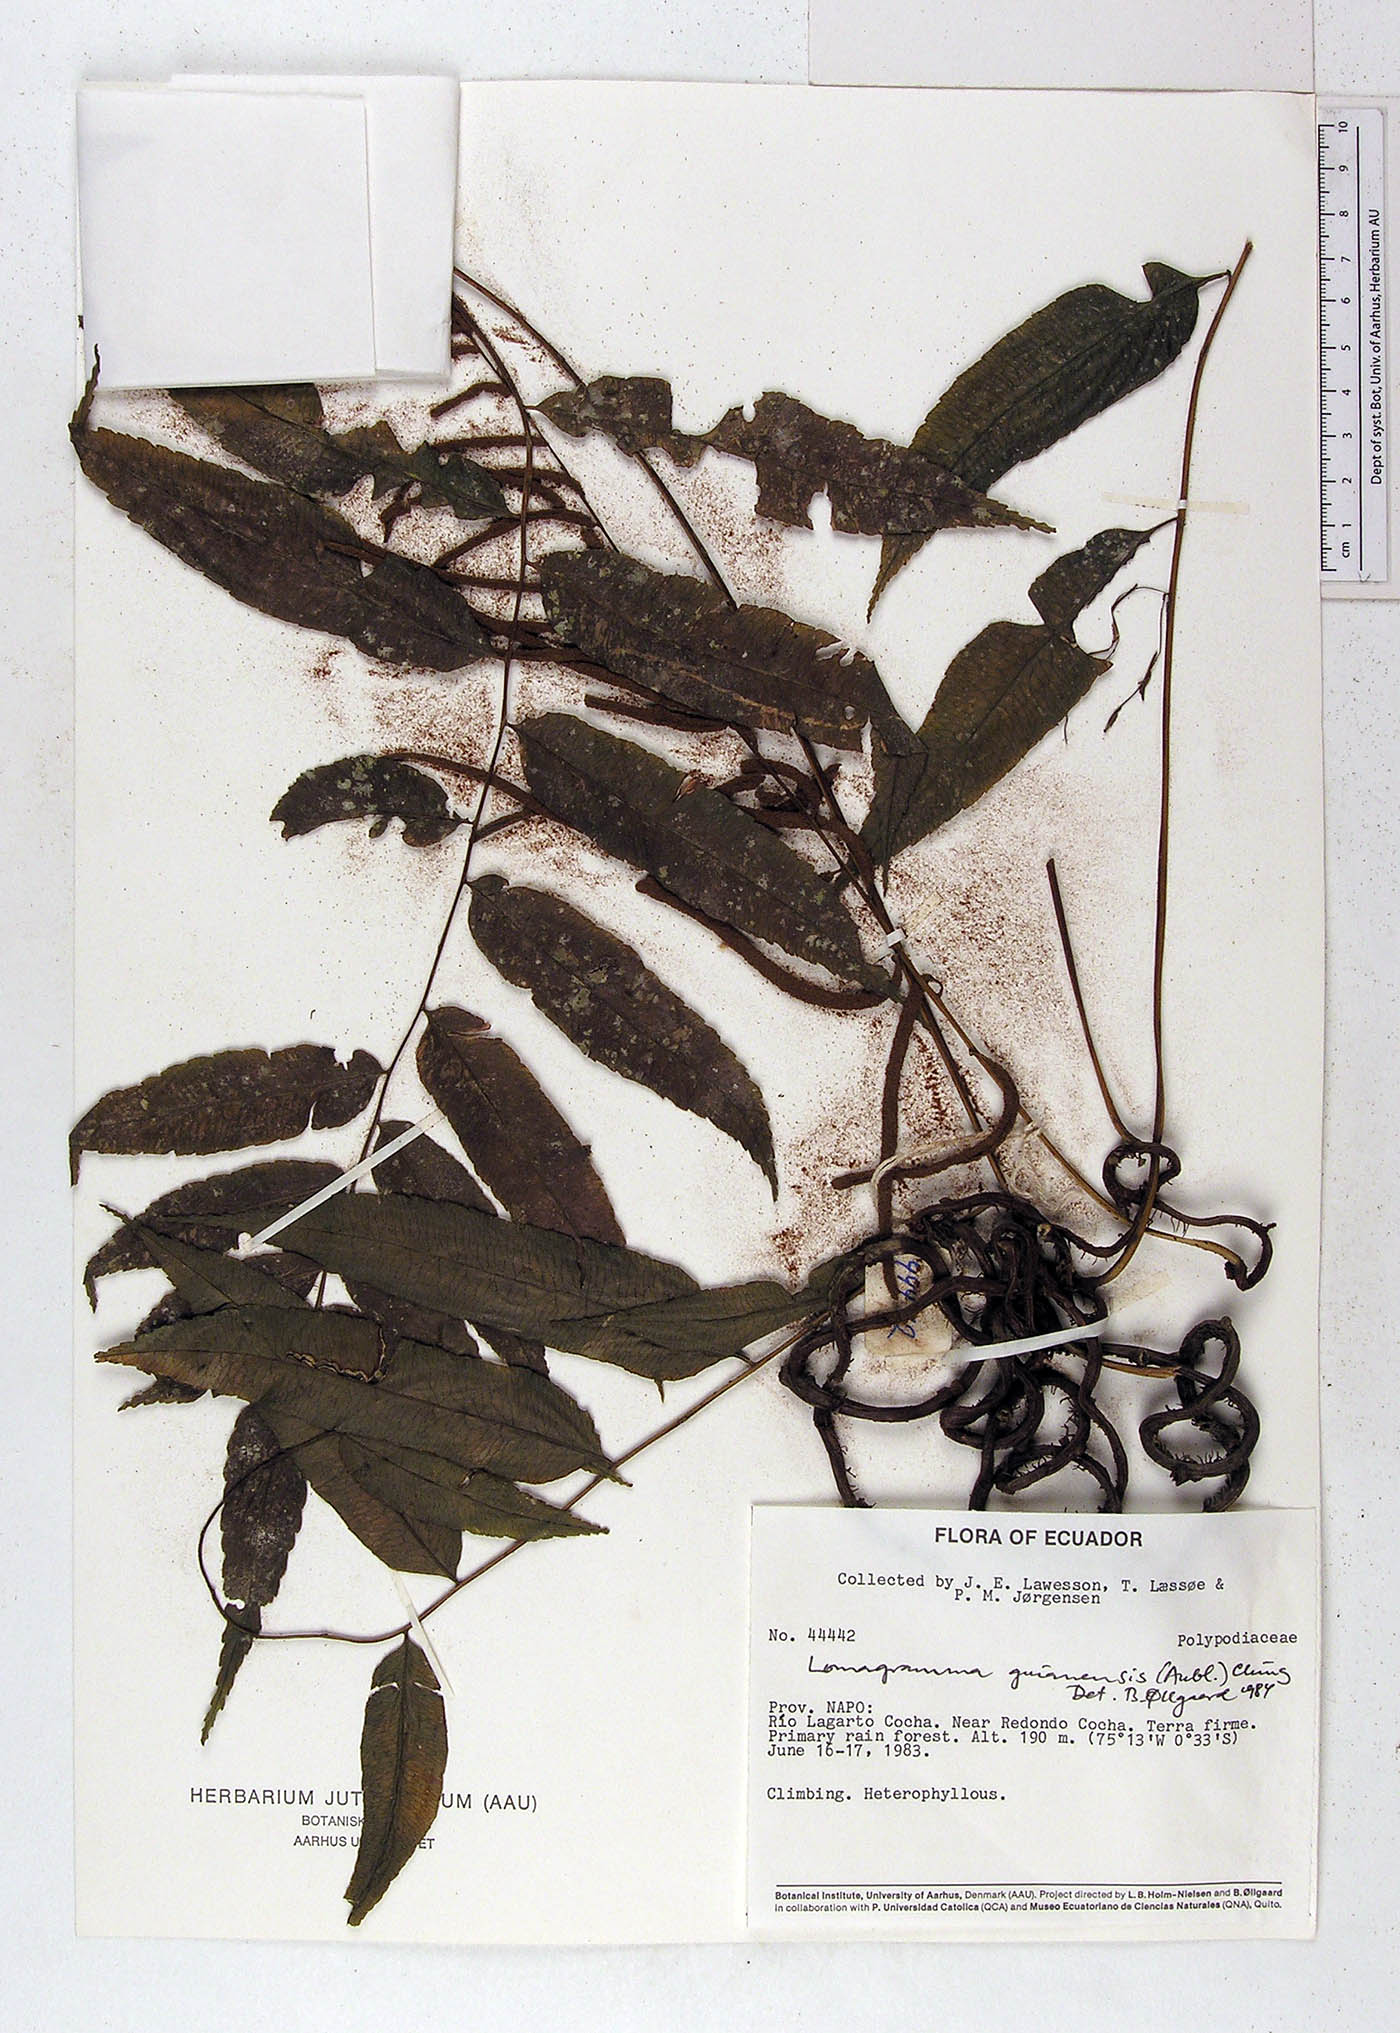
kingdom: Plantae
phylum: Tracheophyta
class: Polypodiopsida
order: Polypodiales
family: Dryopteridaceae
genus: Mickelia
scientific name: Mickelia guianensis
